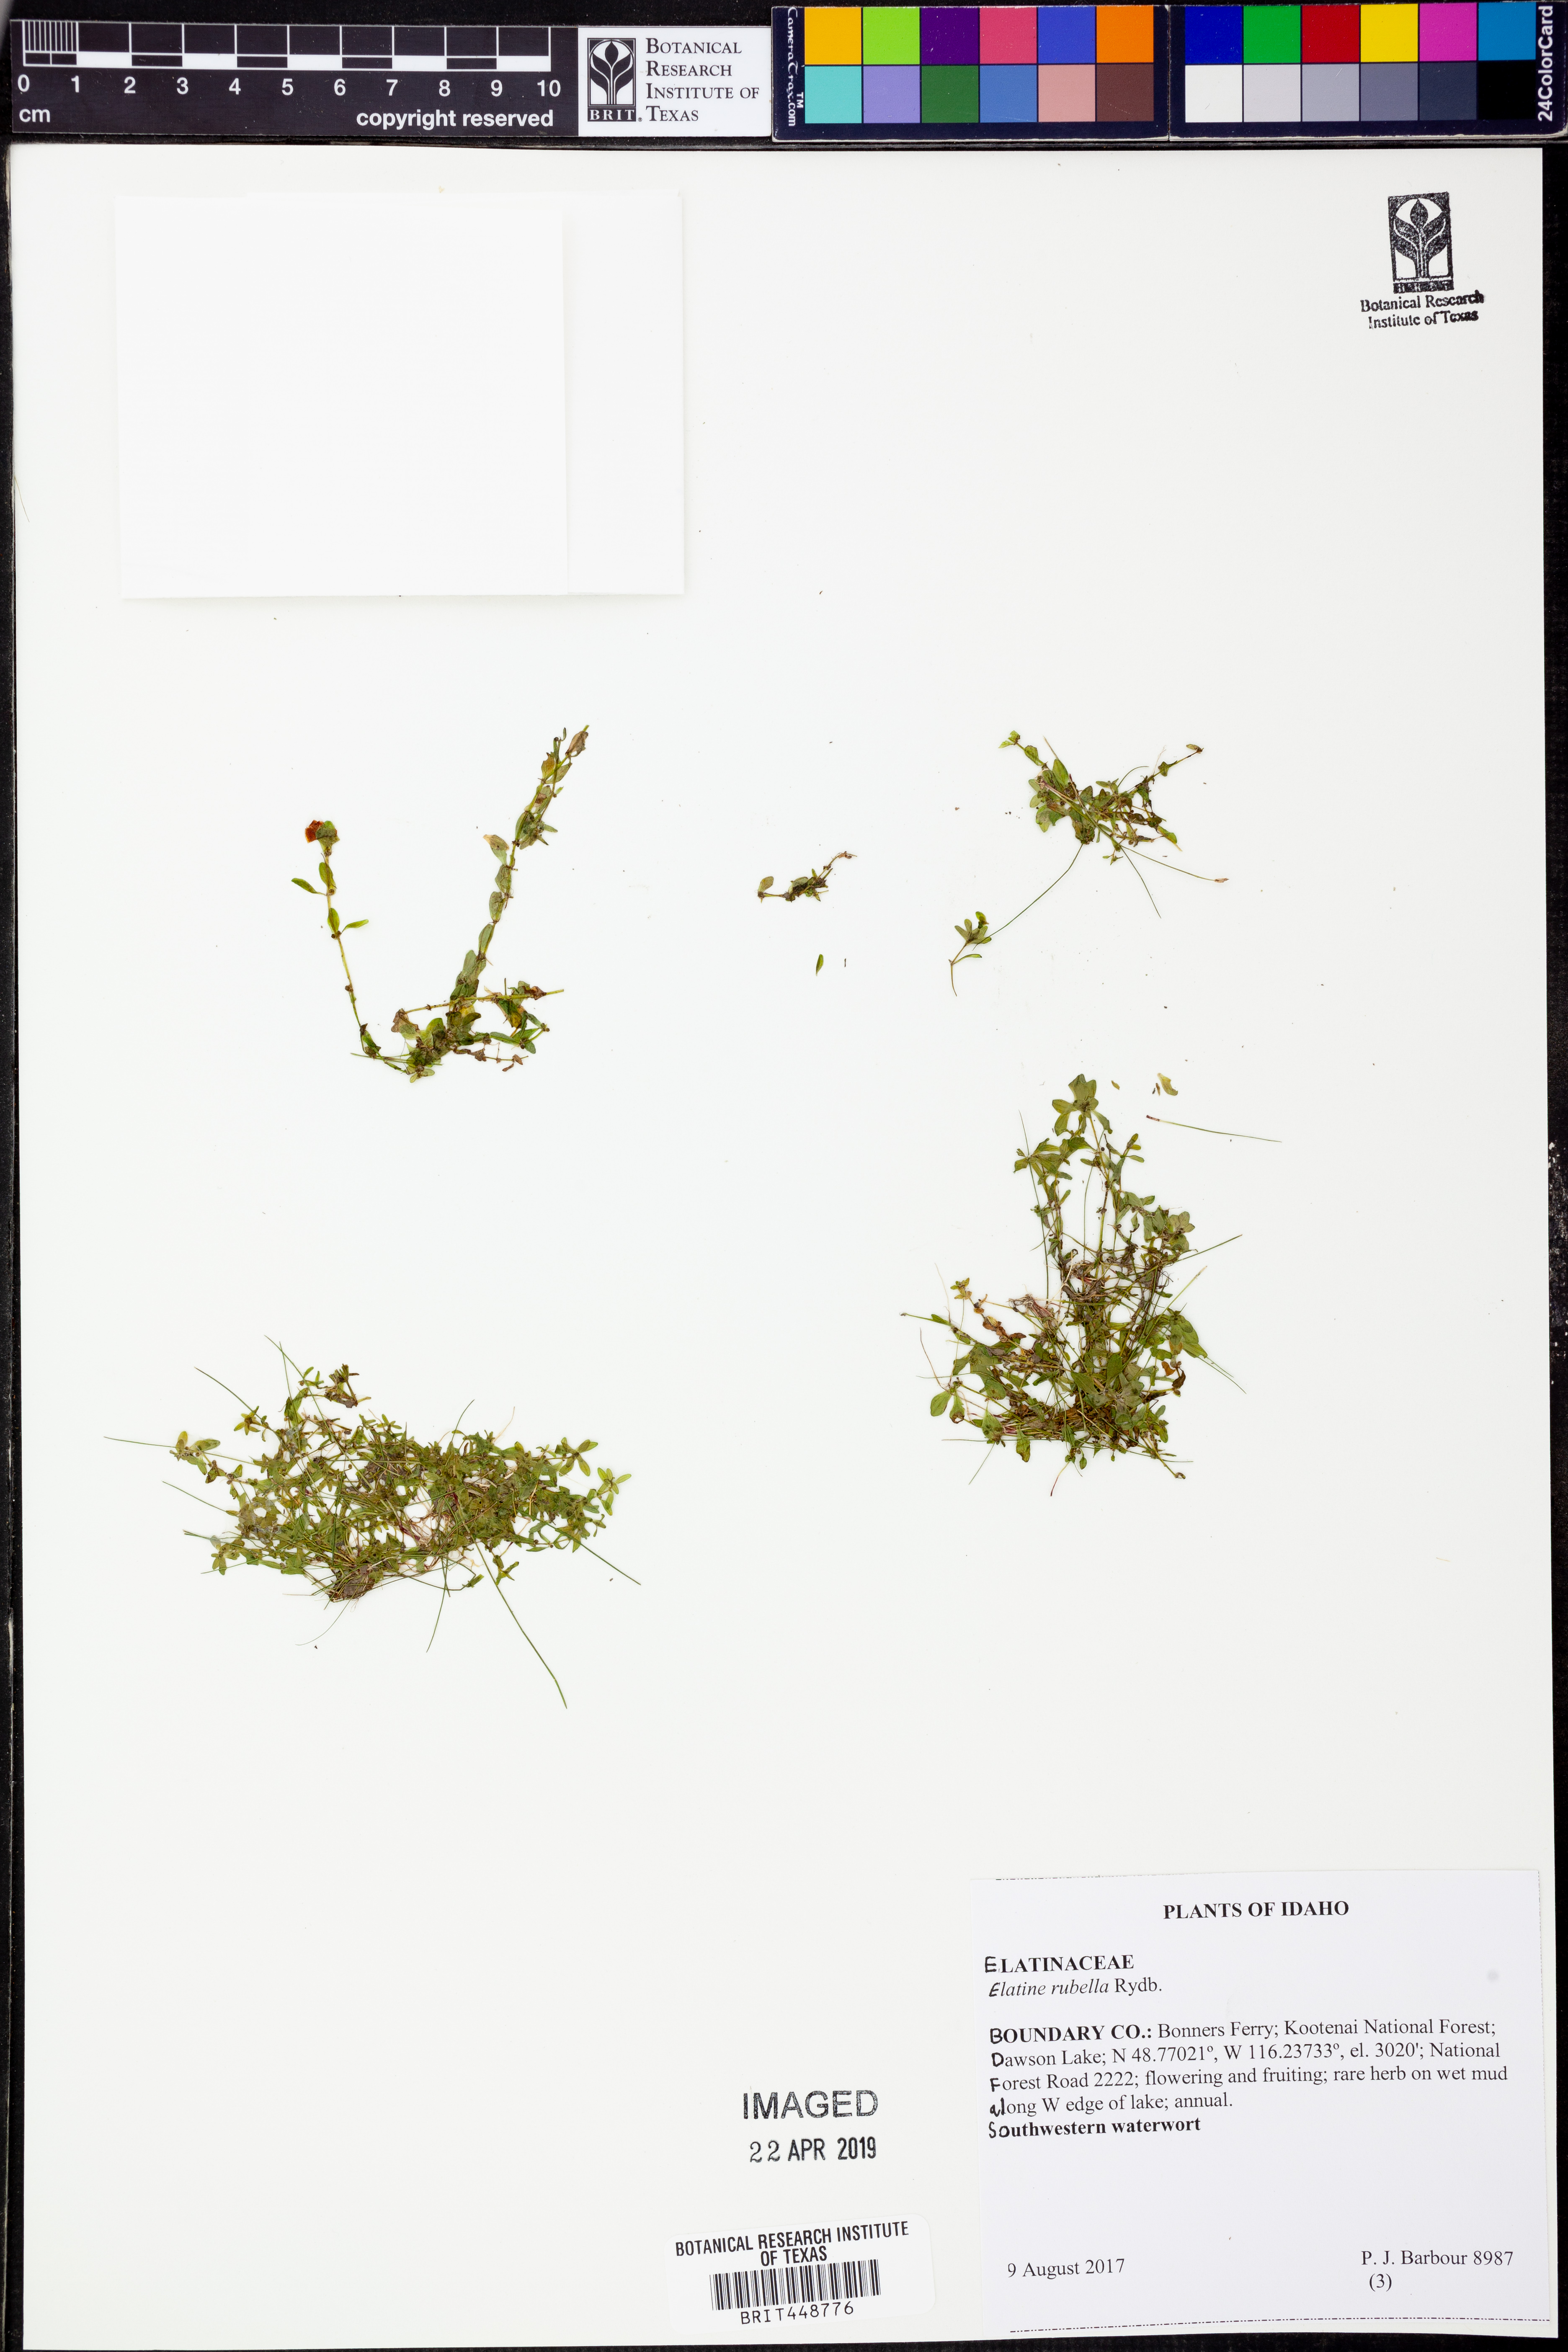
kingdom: Plantae
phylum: Tracheophyta
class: Magnoliopsida
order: Malpighiales
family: Elatinaceae
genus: Elatine
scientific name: Elatine rubella
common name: Red-stemmed waterwort
